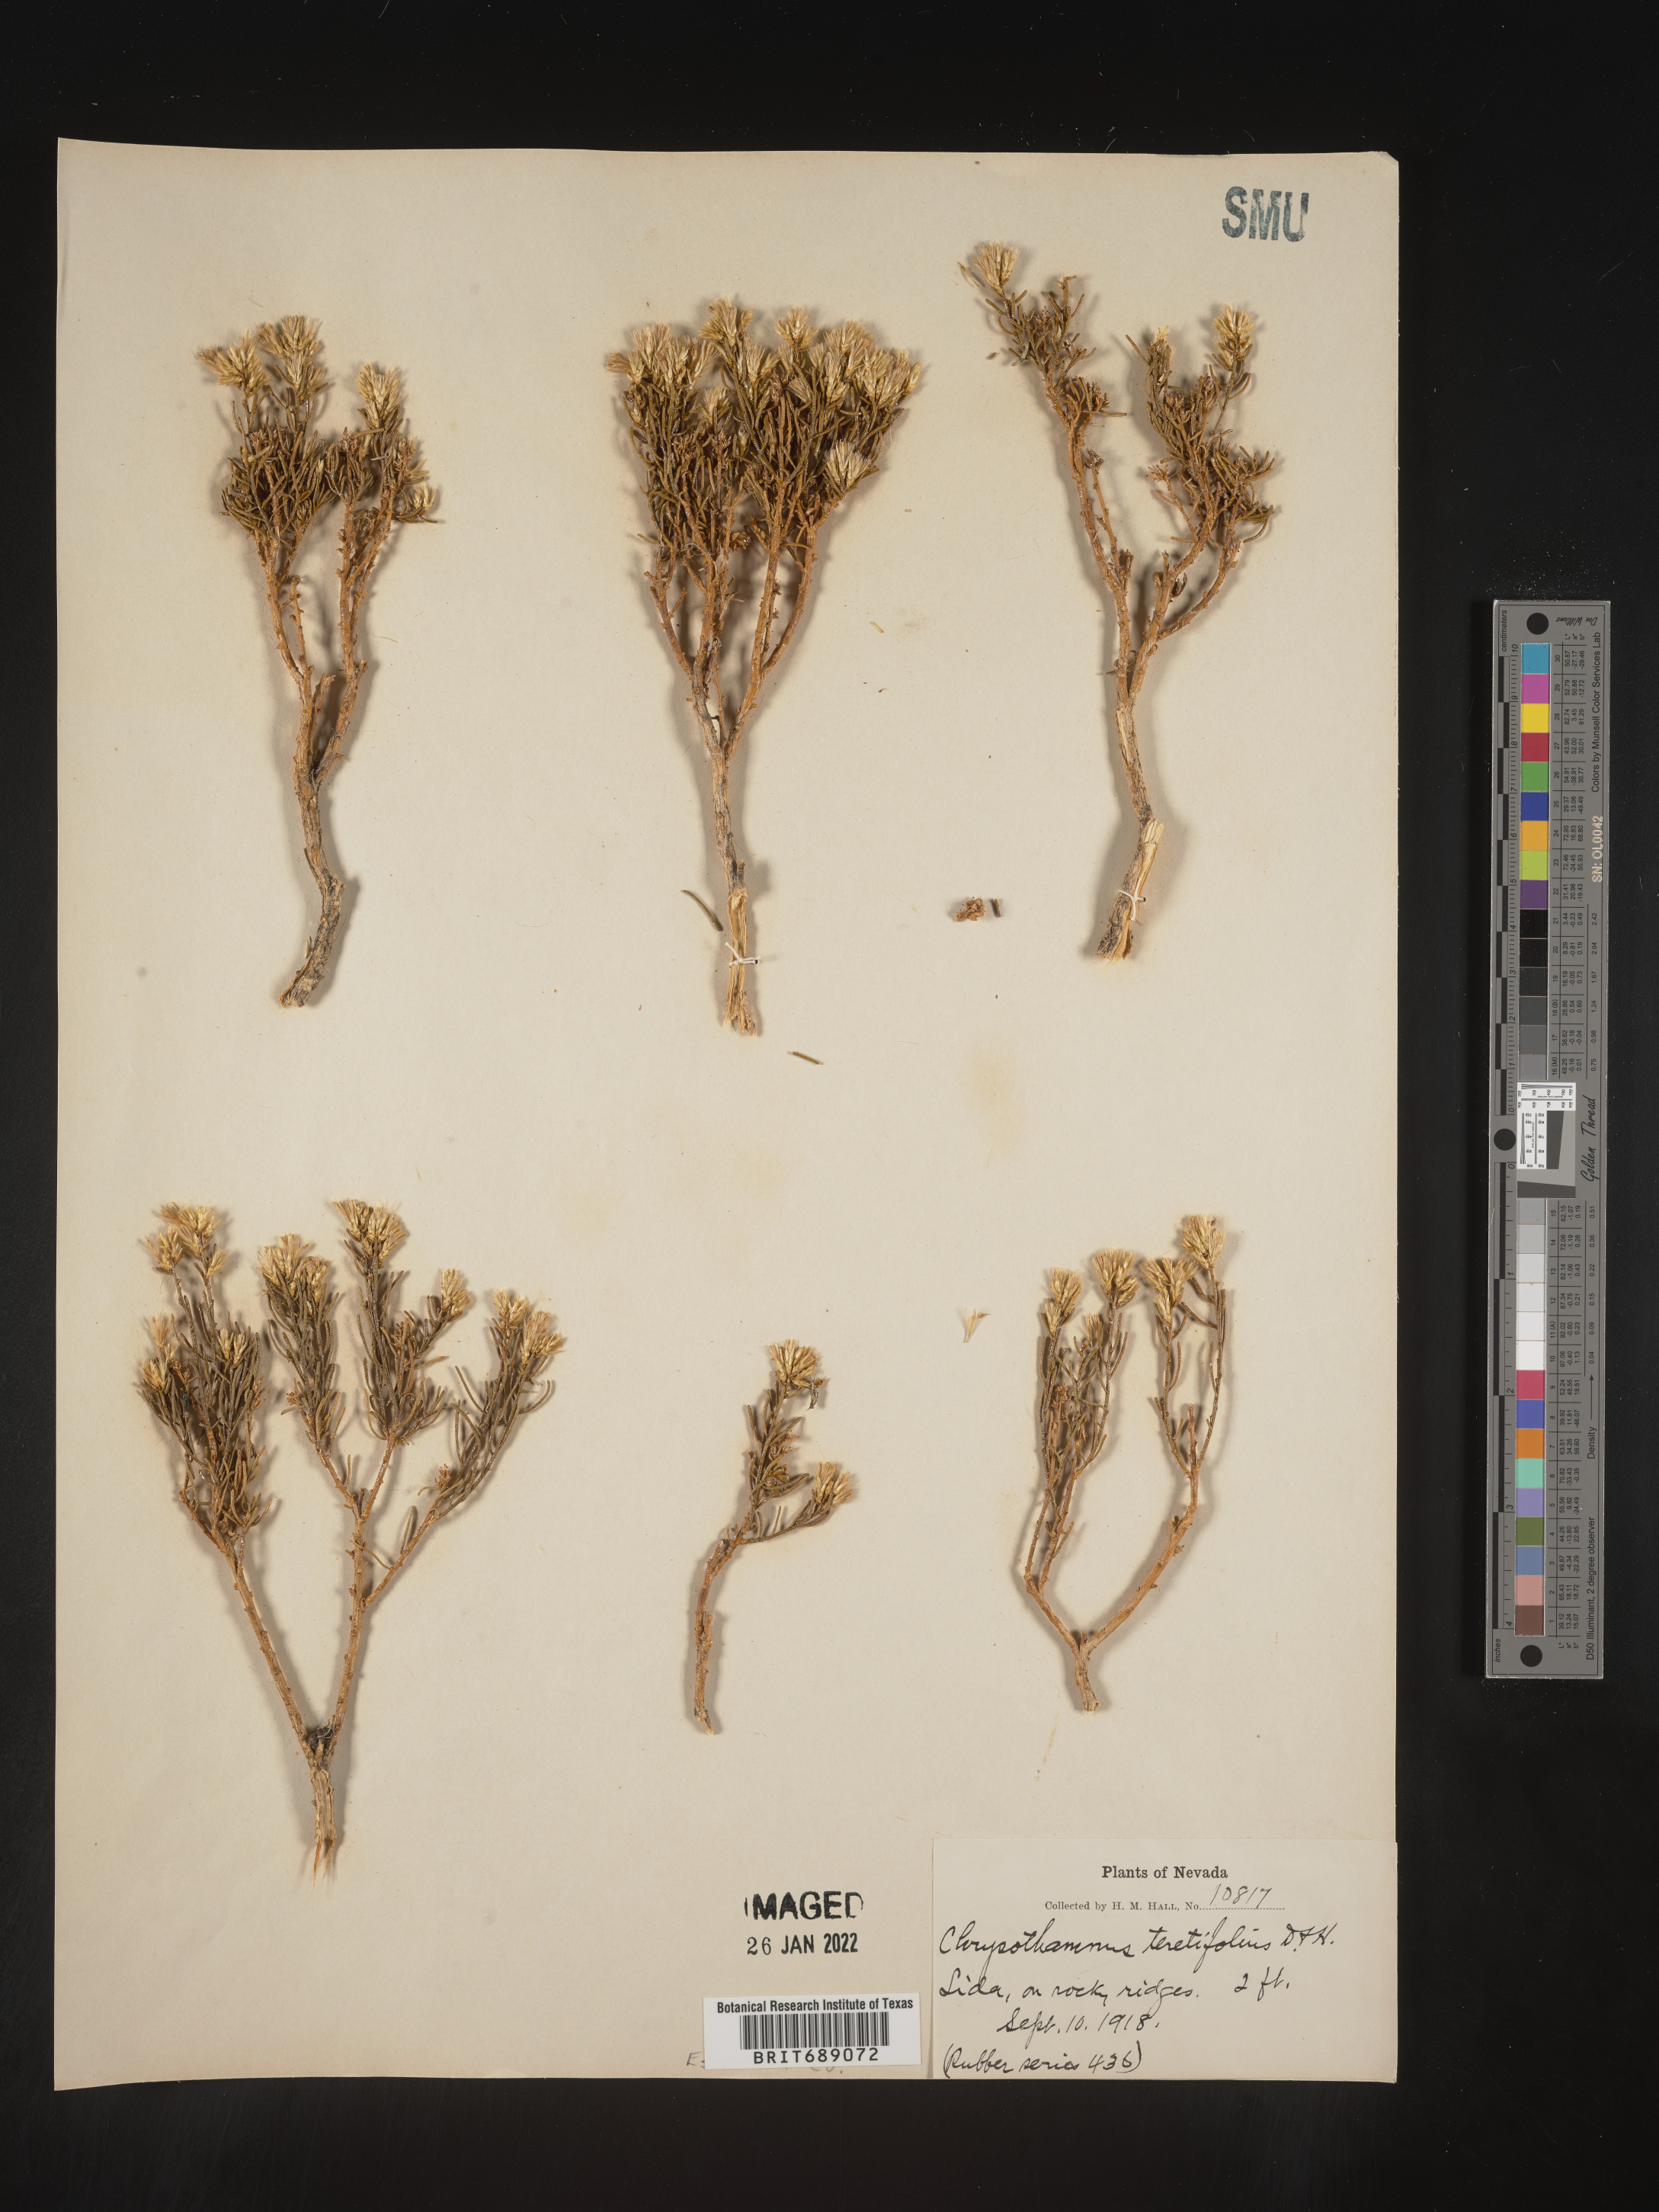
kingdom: Plantae
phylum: Tracheophyta
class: Magnoliopsida
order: Asterales
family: Asteraceae
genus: Ericameria
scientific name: Ericameria teretifolia
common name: Round-leaf rabbitbrush
